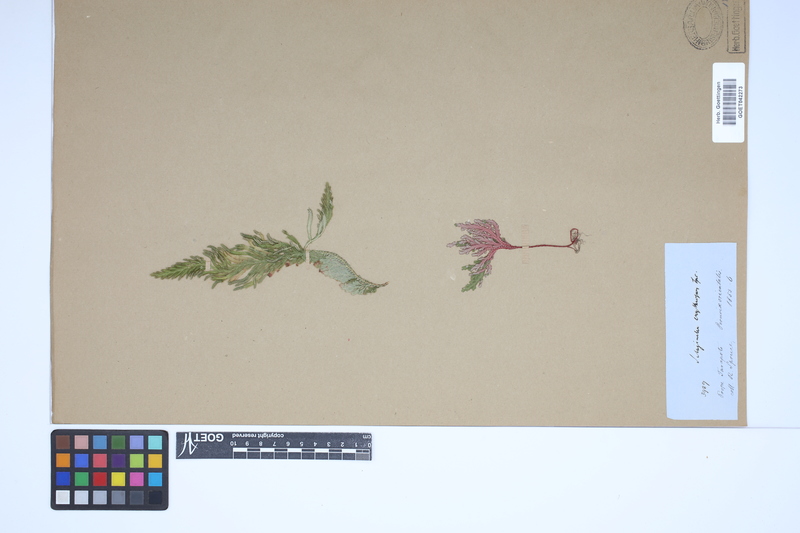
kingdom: Plantae
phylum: Tracheophyta
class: Lycopodiopsida
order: Selaginellales
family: Selaginellaceae
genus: Selaginella
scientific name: Selaginella erythropus
